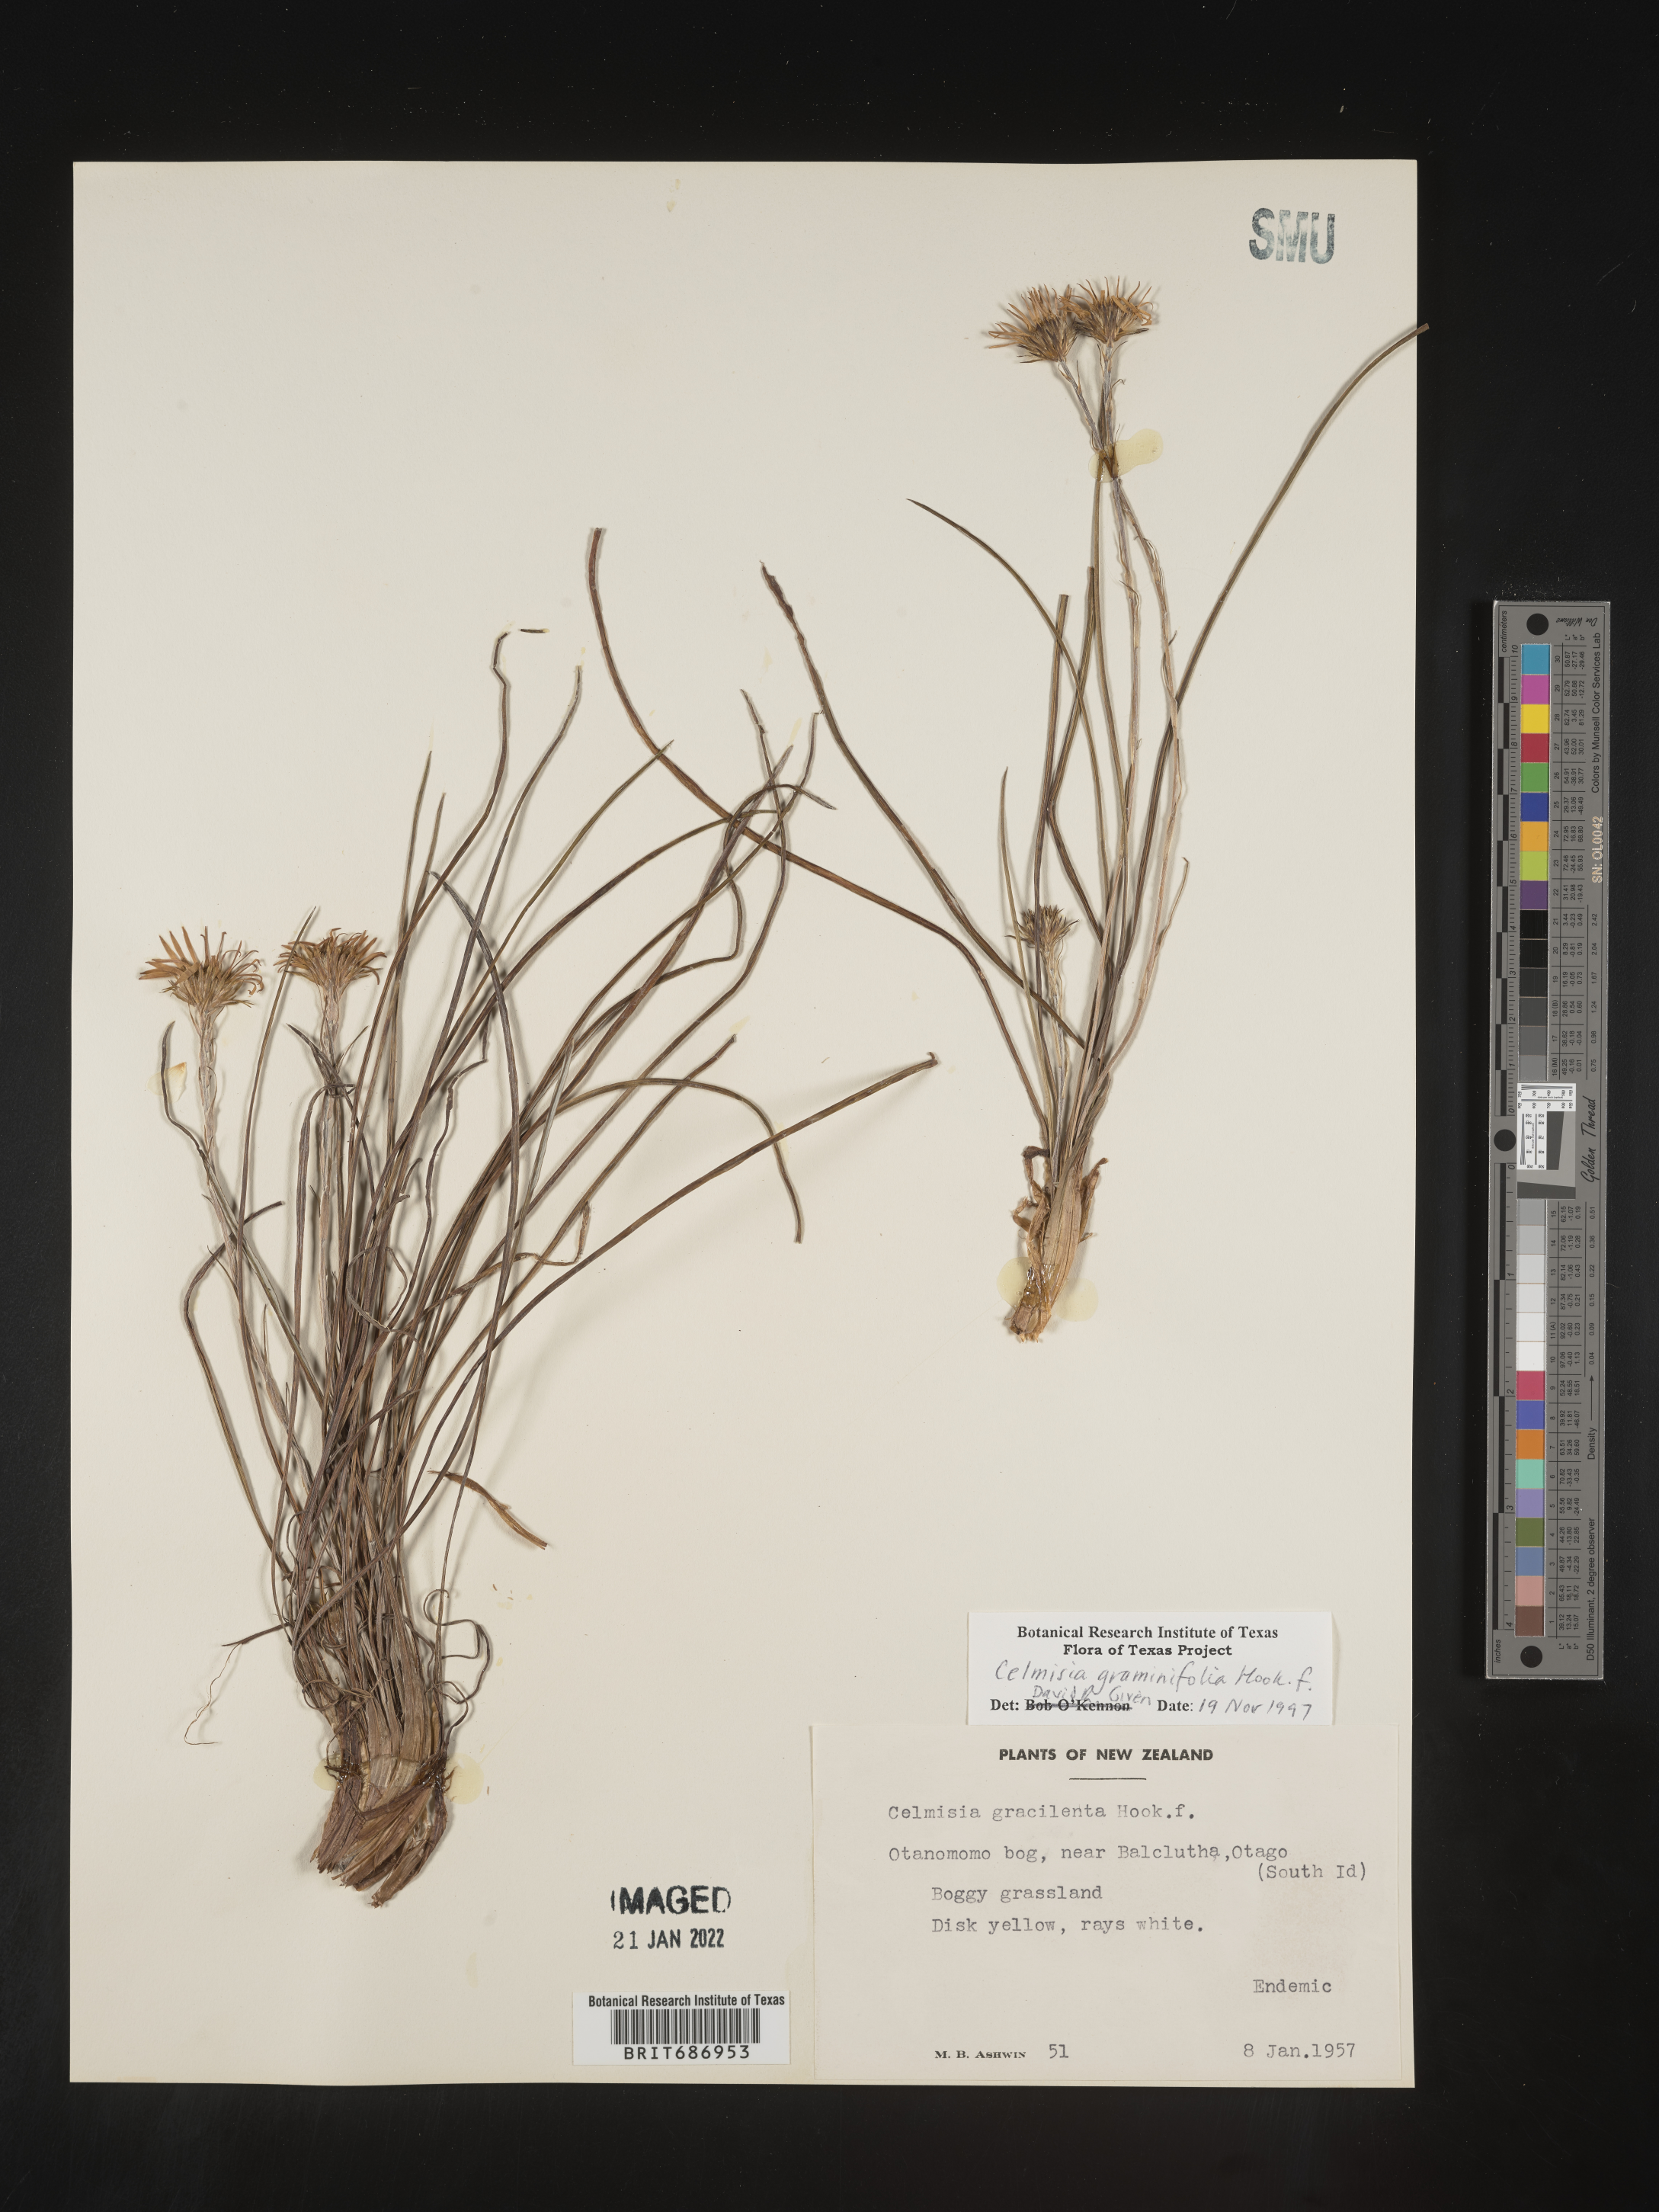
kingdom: Plantae
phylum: Tracheophyta
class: Magnoliopsida
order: Asterales
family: Asteraceae
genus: Celmisia
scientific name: Celmisia
